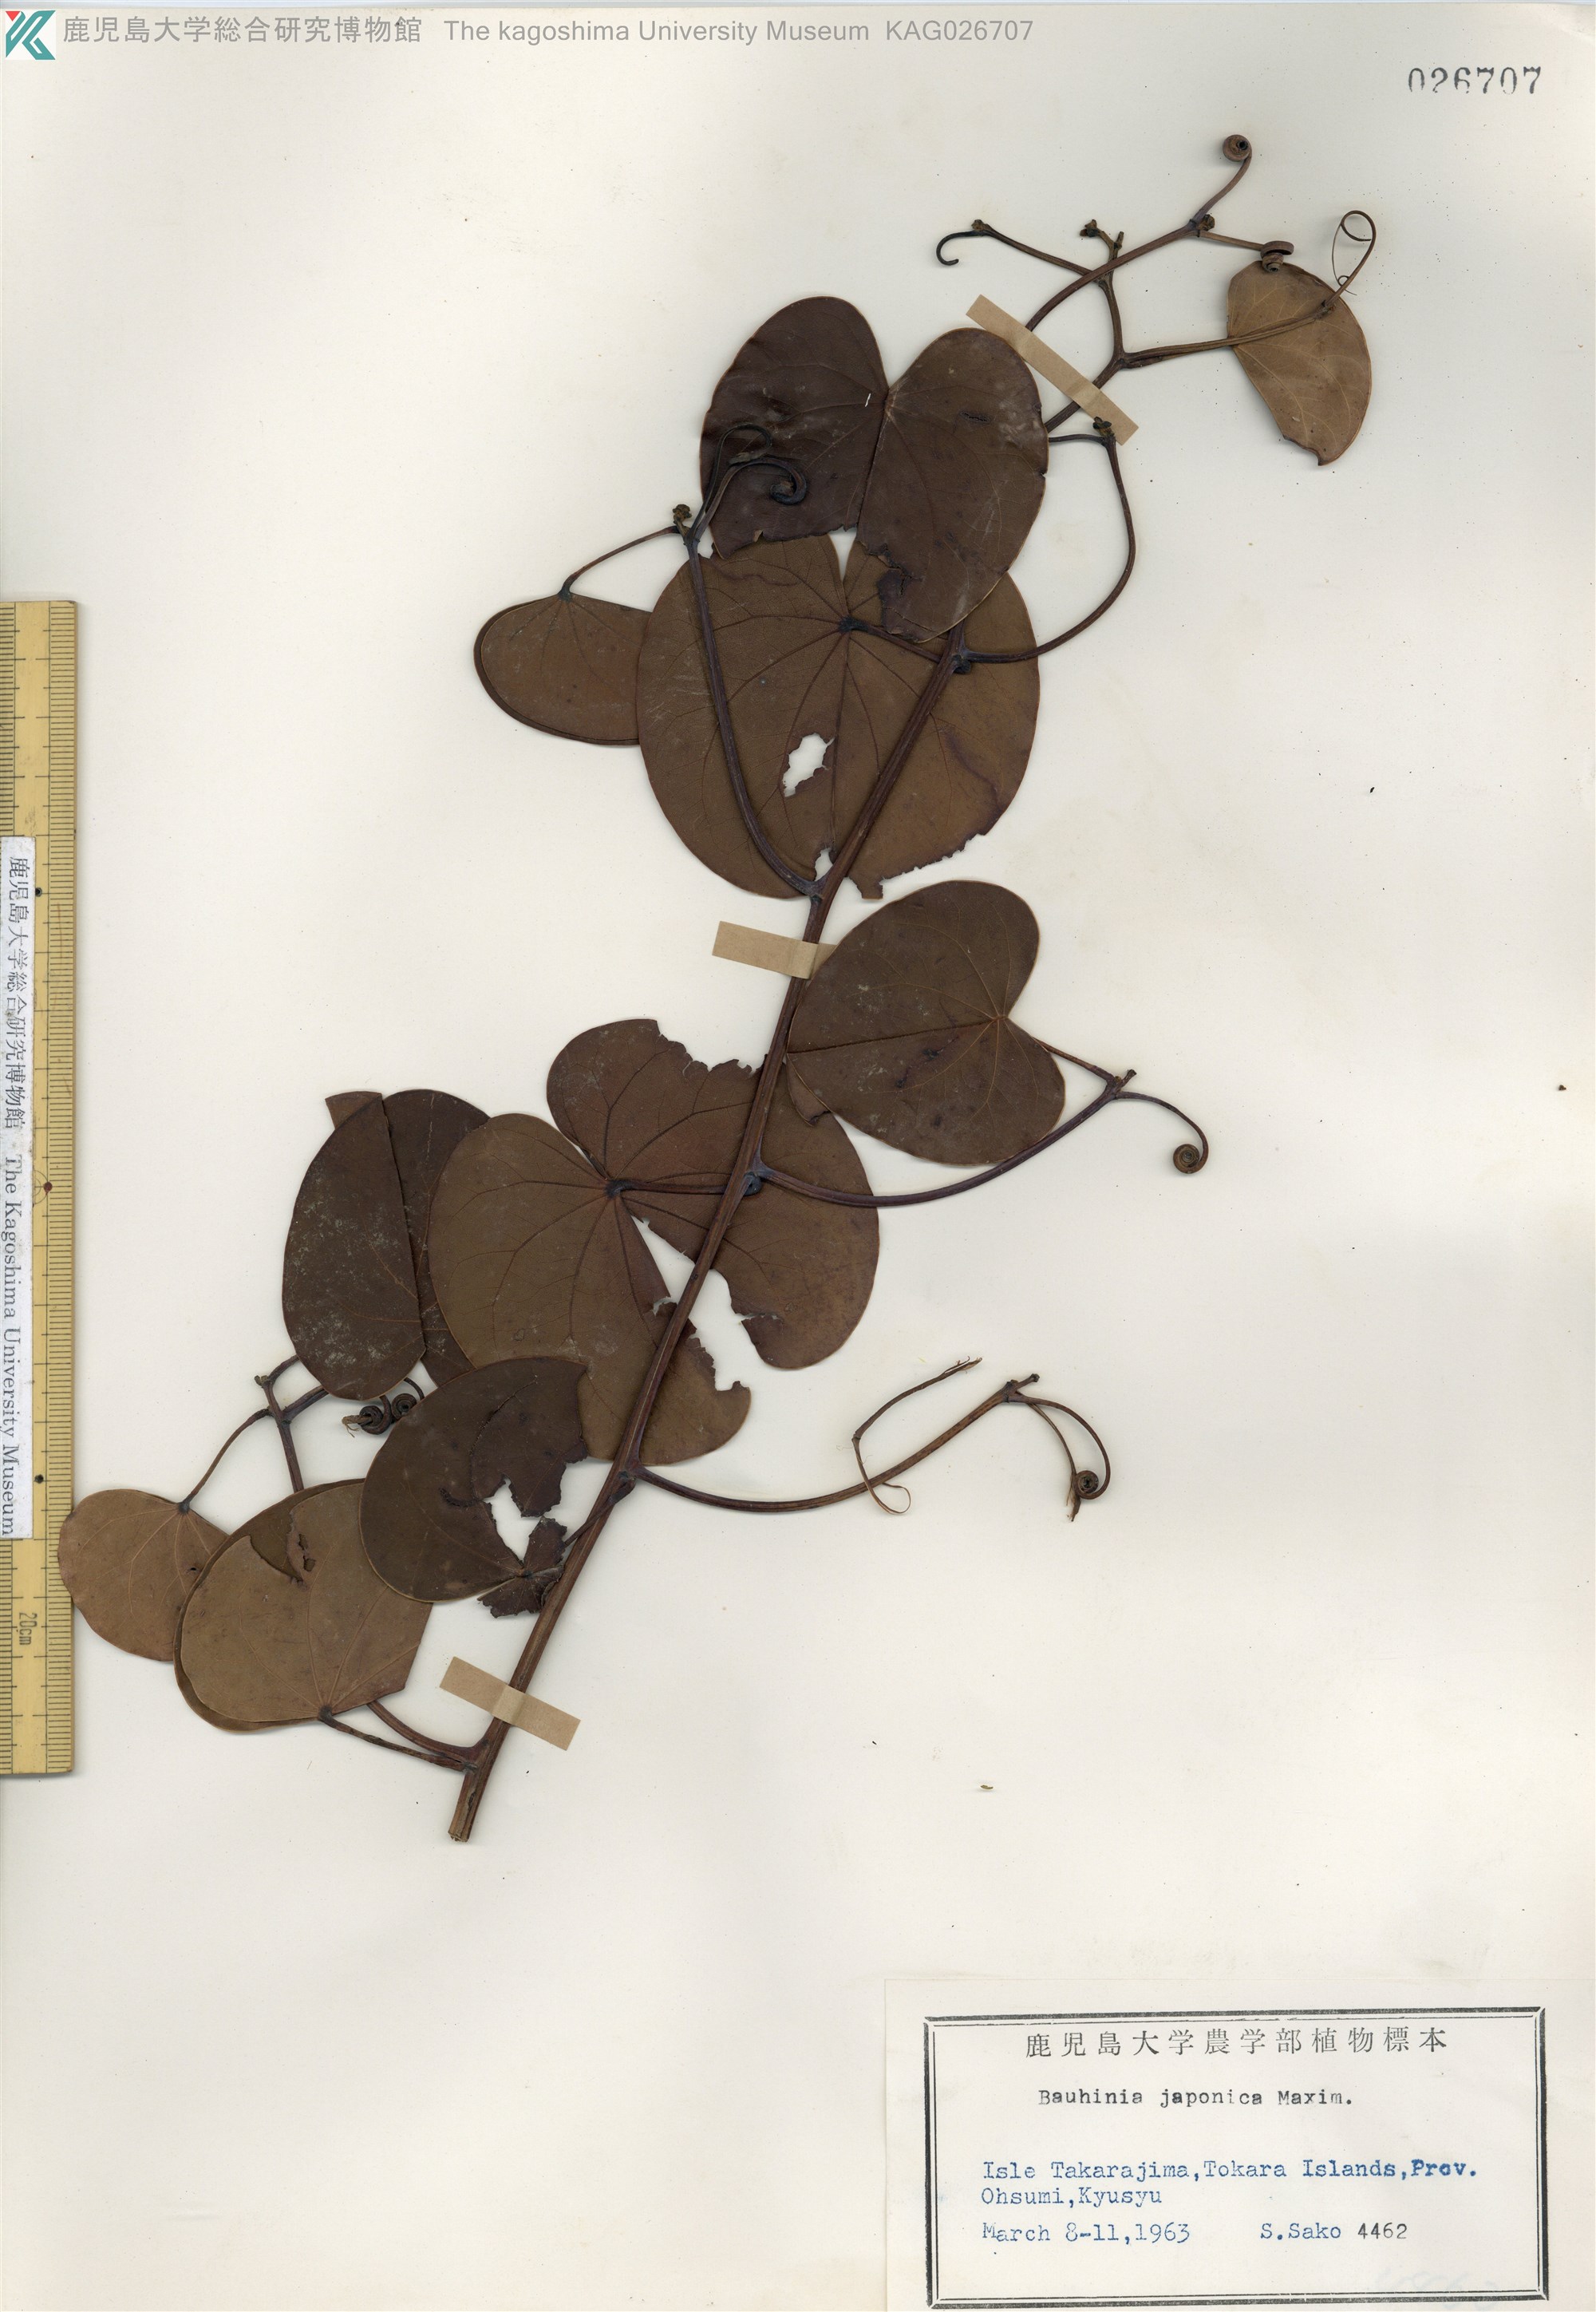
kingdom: Plantae
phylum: Tracheophyta
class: Magnoliopsida
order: Fabales
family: Fabaceae
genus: Phanera
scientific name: Phanera japonica
